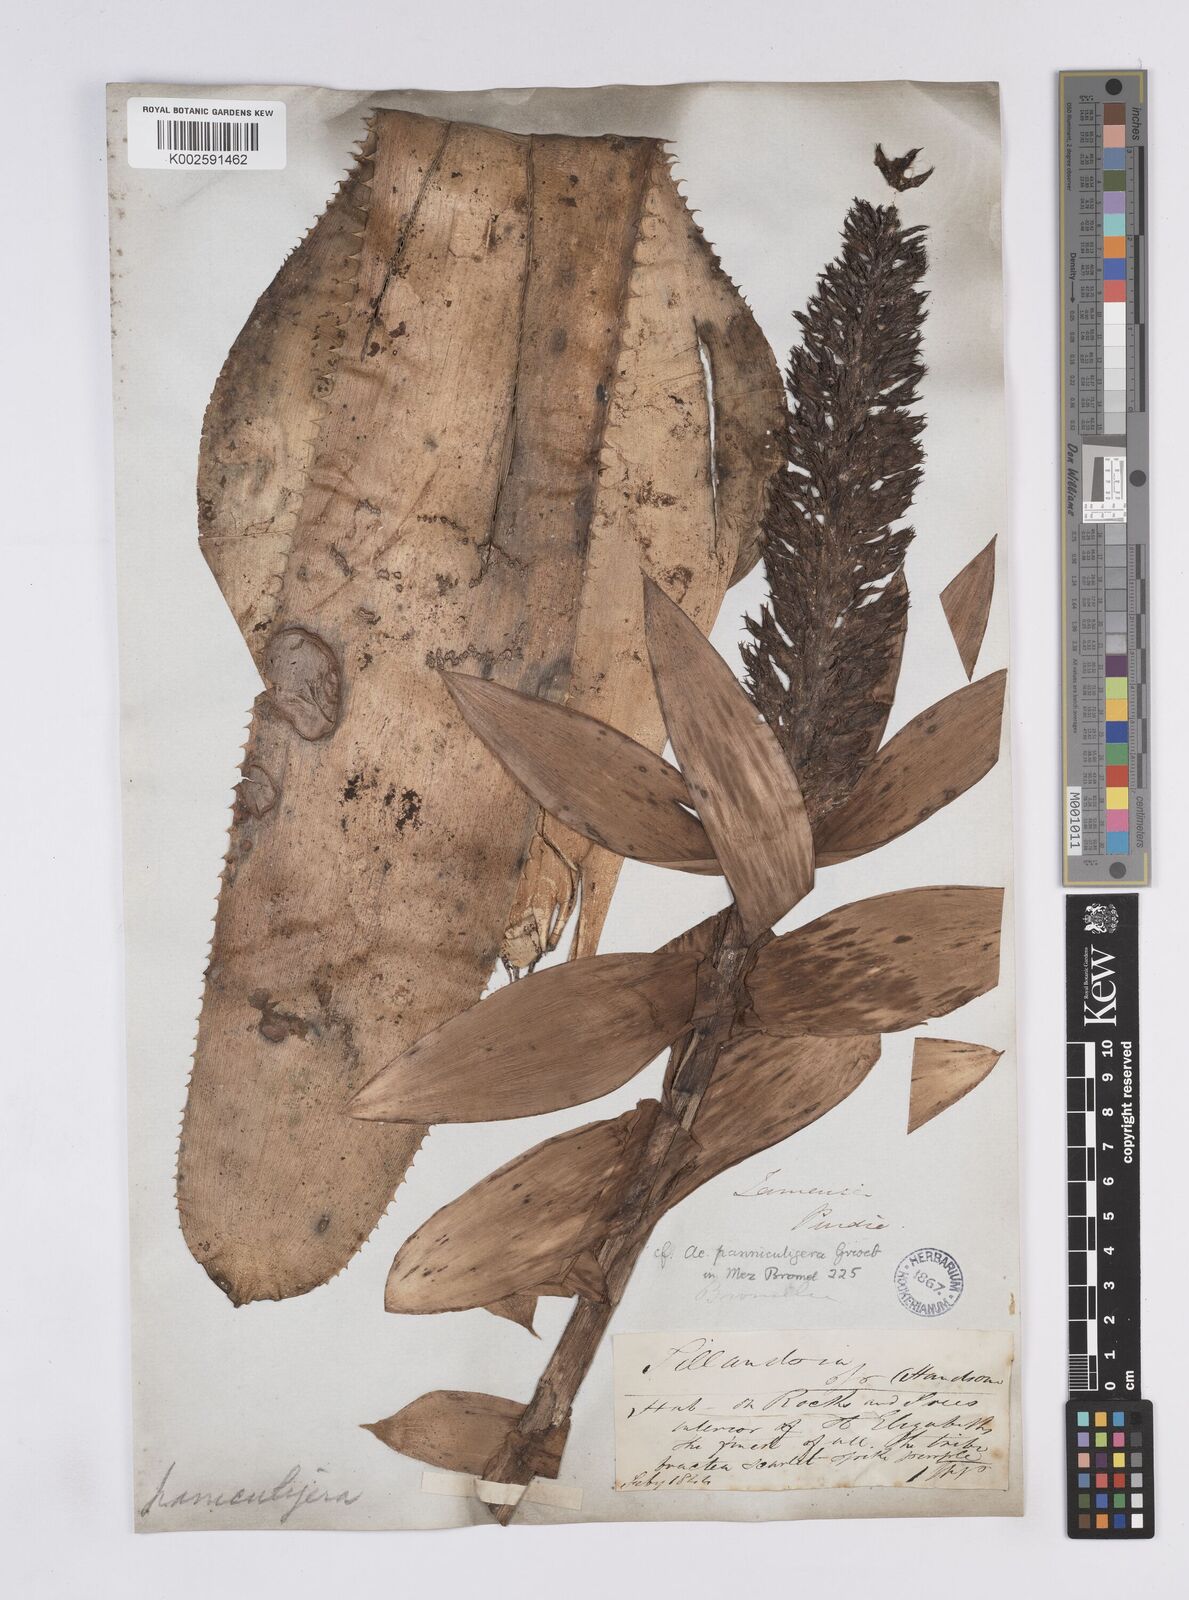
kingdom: Plantae
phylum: Tracheophyta
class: Liliopsida
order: Poales
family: Bromeliaceae
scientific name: Bromeliaceae
